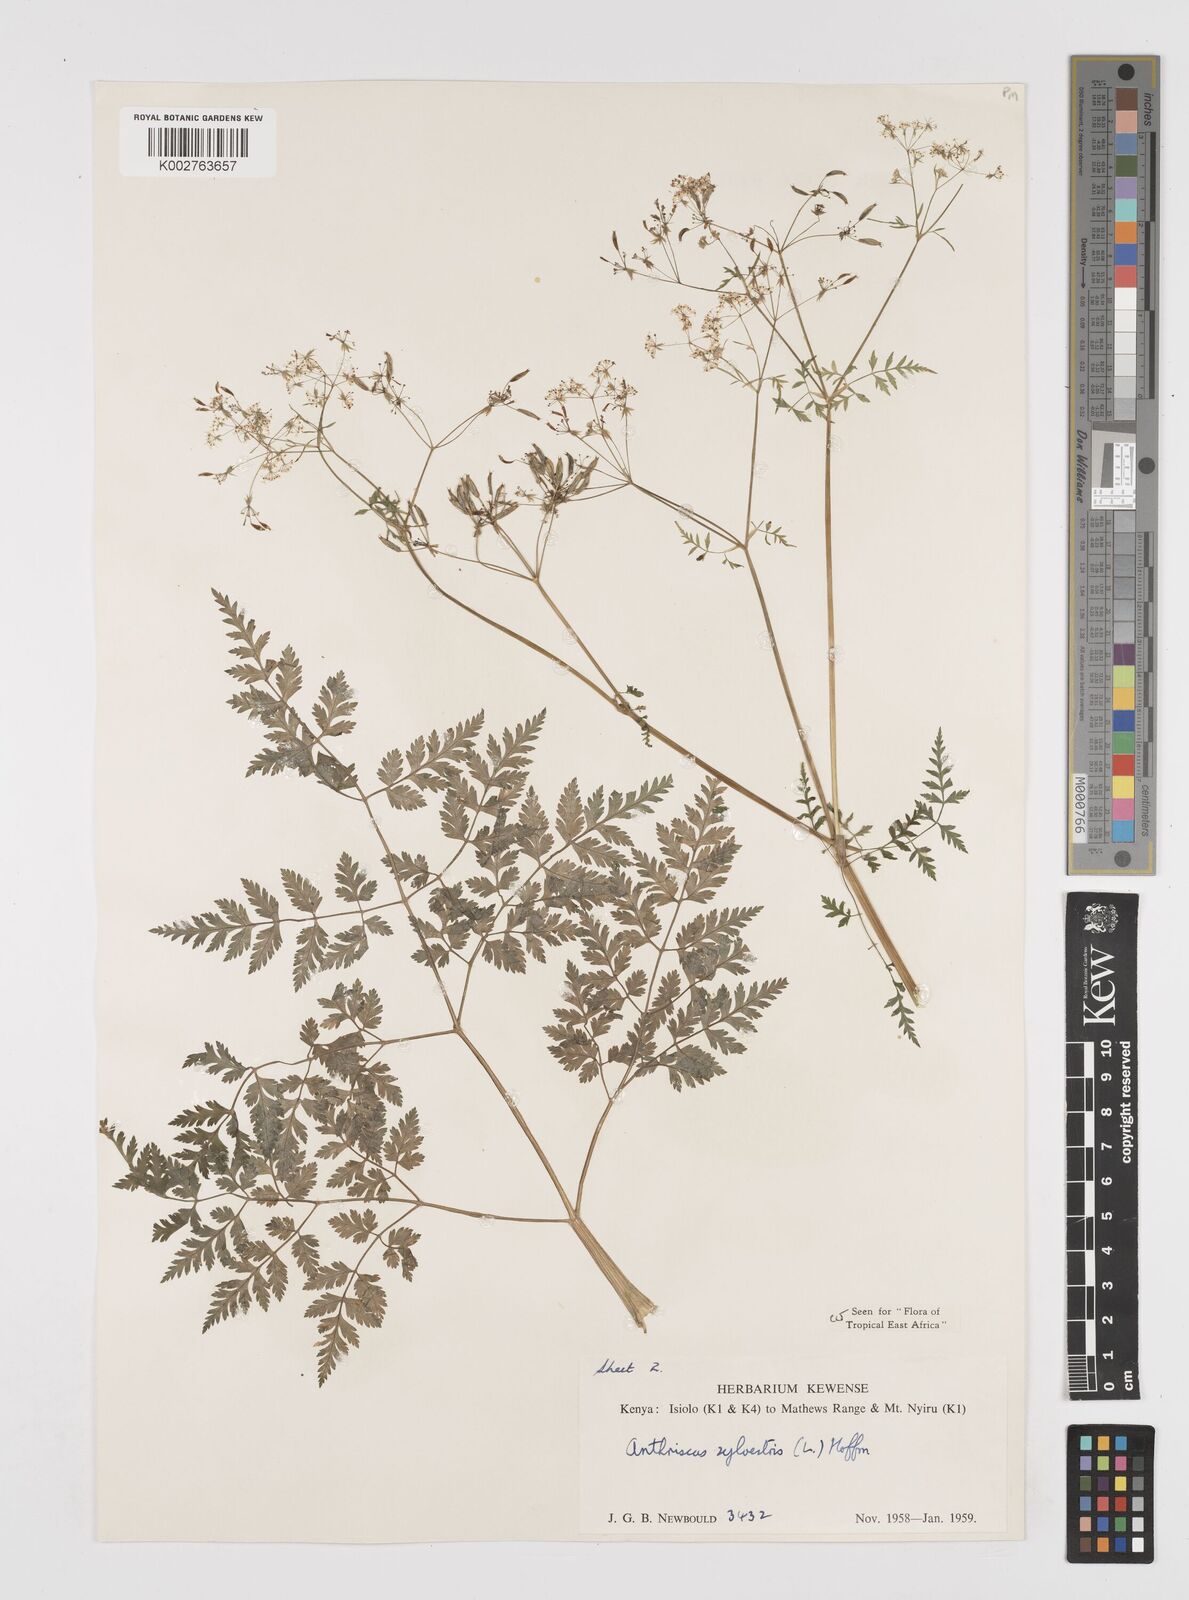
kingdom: Plantae
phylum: Tracheophyta
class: Magnoliopsida
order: Apiales
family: Apiaceae
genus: Anthriscus
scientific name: Anthriscus sylvestris
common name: Cow parsley
